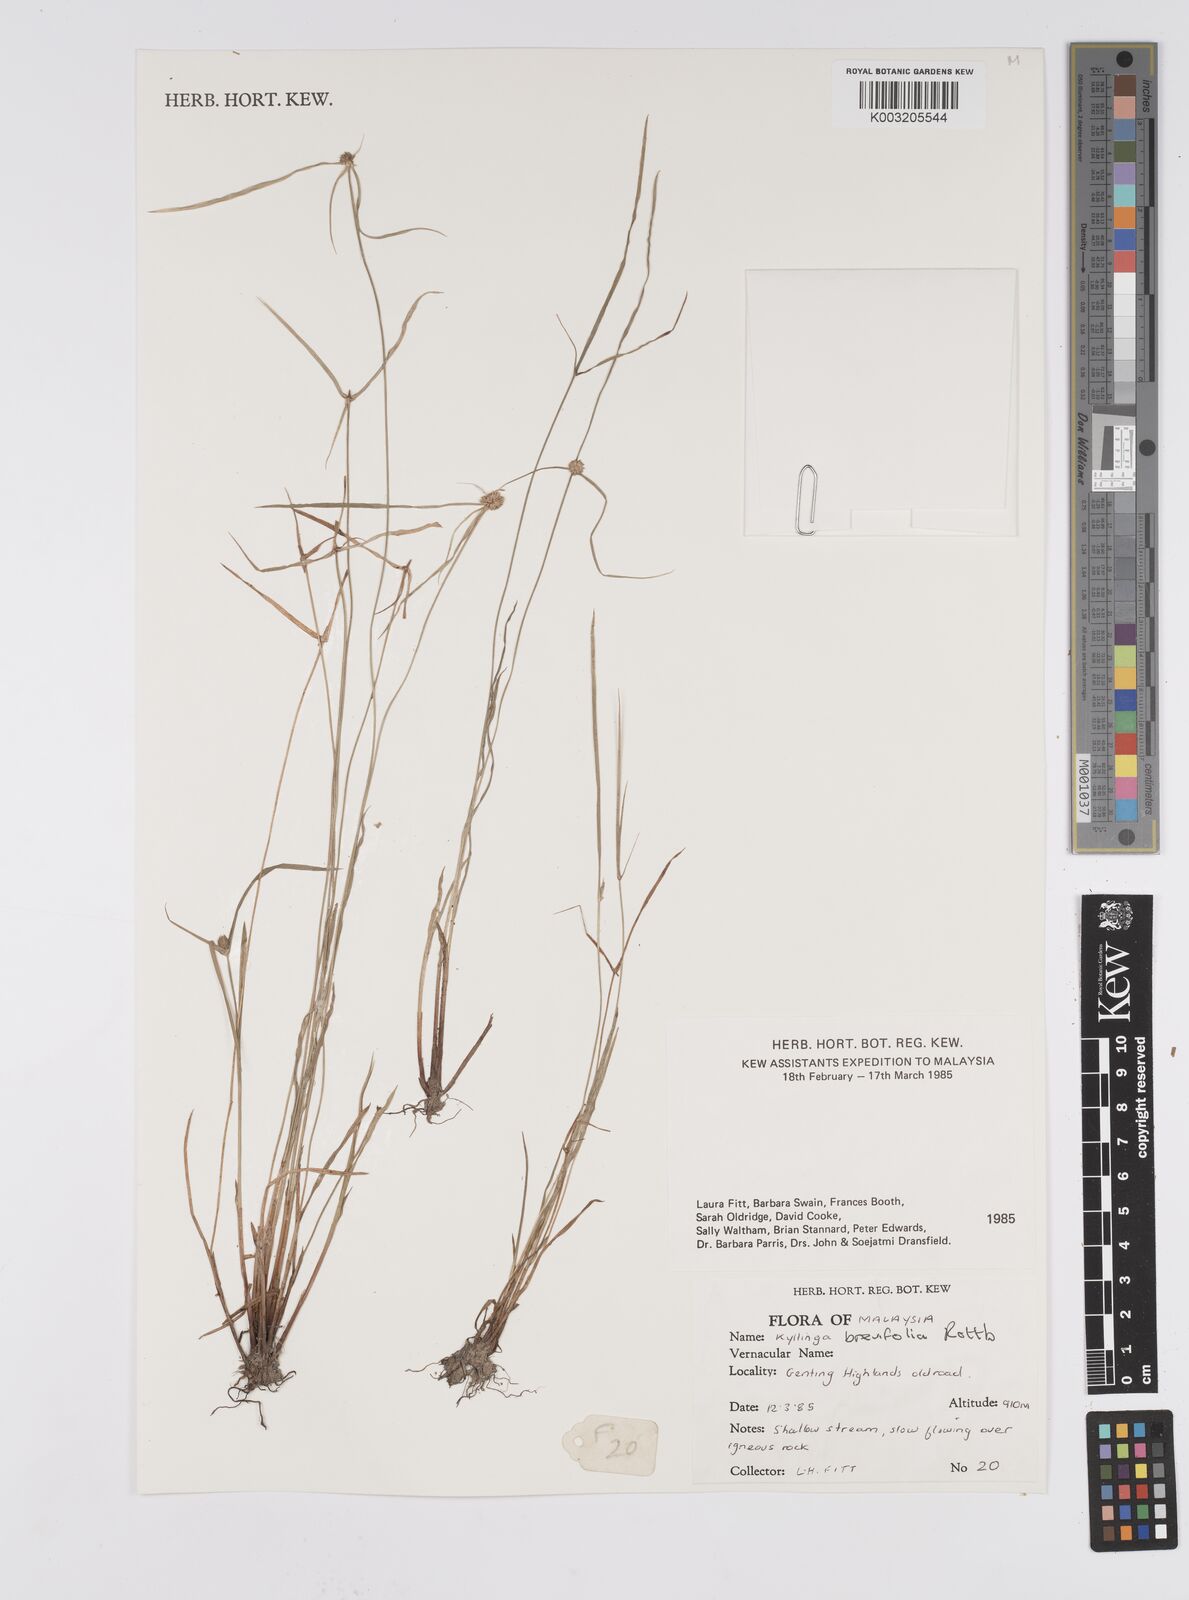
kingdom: Plantae
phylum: Tracheophyta
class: Liliopsida
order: Poales
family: Cyperaceae
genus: Cyperus
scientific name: Cyperus
